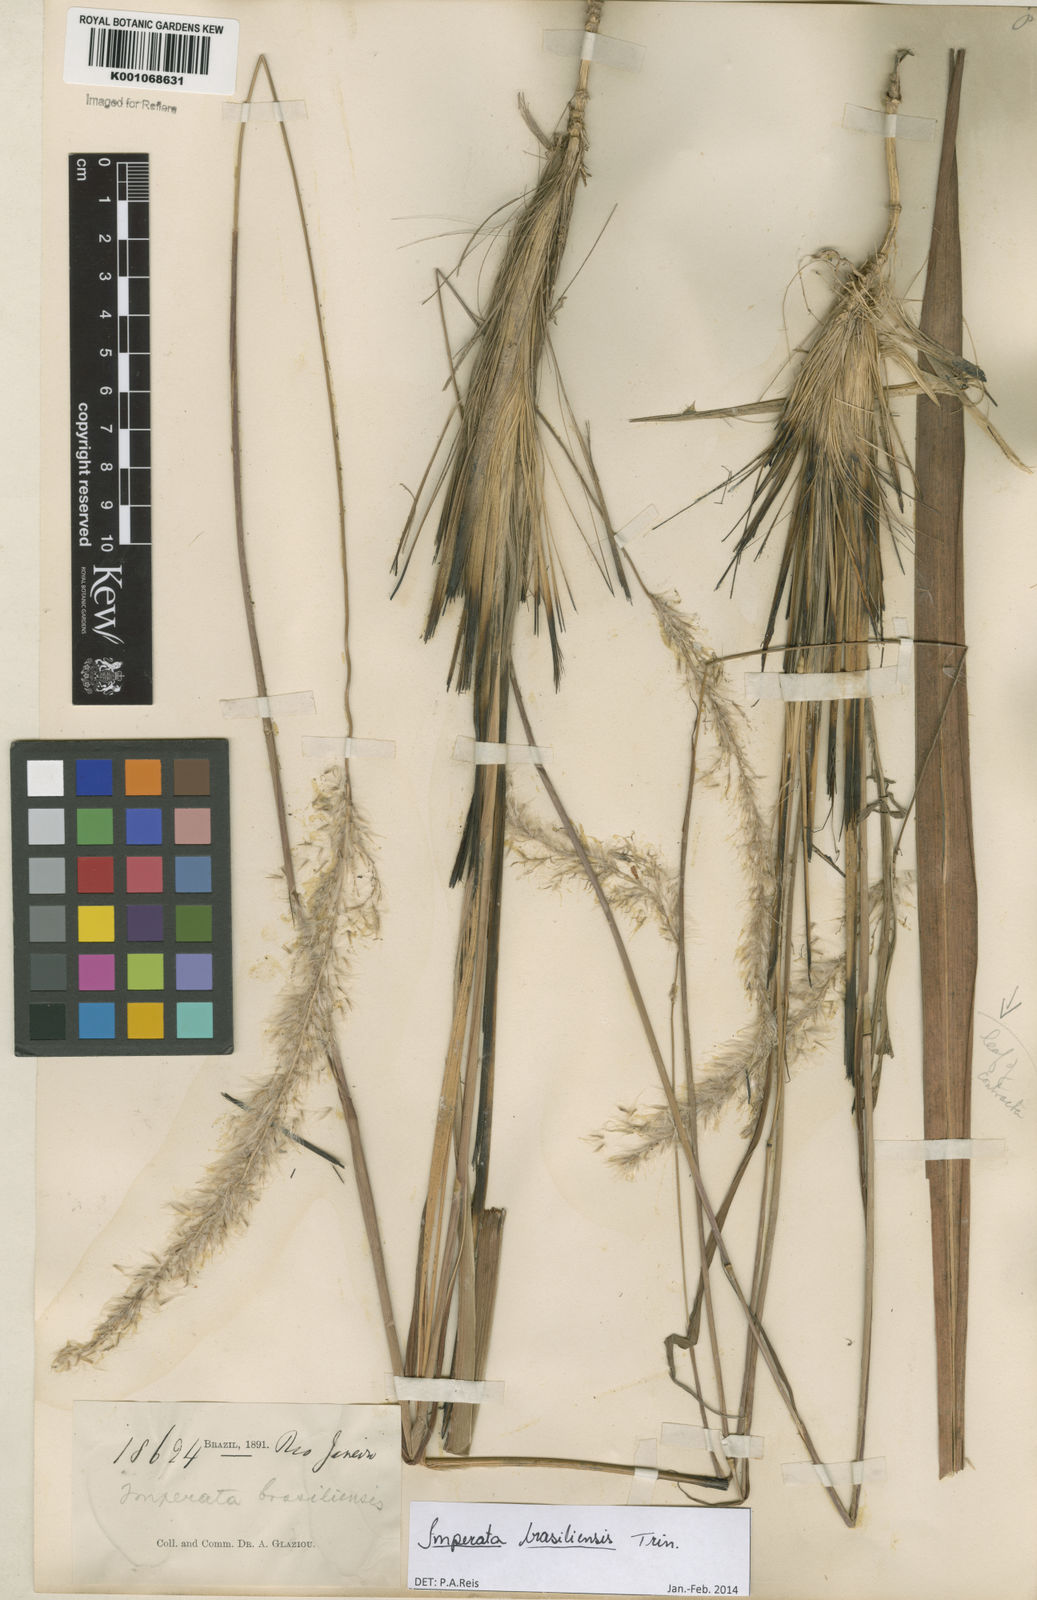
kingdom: Plantae
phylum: Tracheophyta
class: Liliopsida
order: Poales
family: Poaceae
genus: Imperata
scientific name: Imperata brasiliensis
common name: Brazilian satintail
